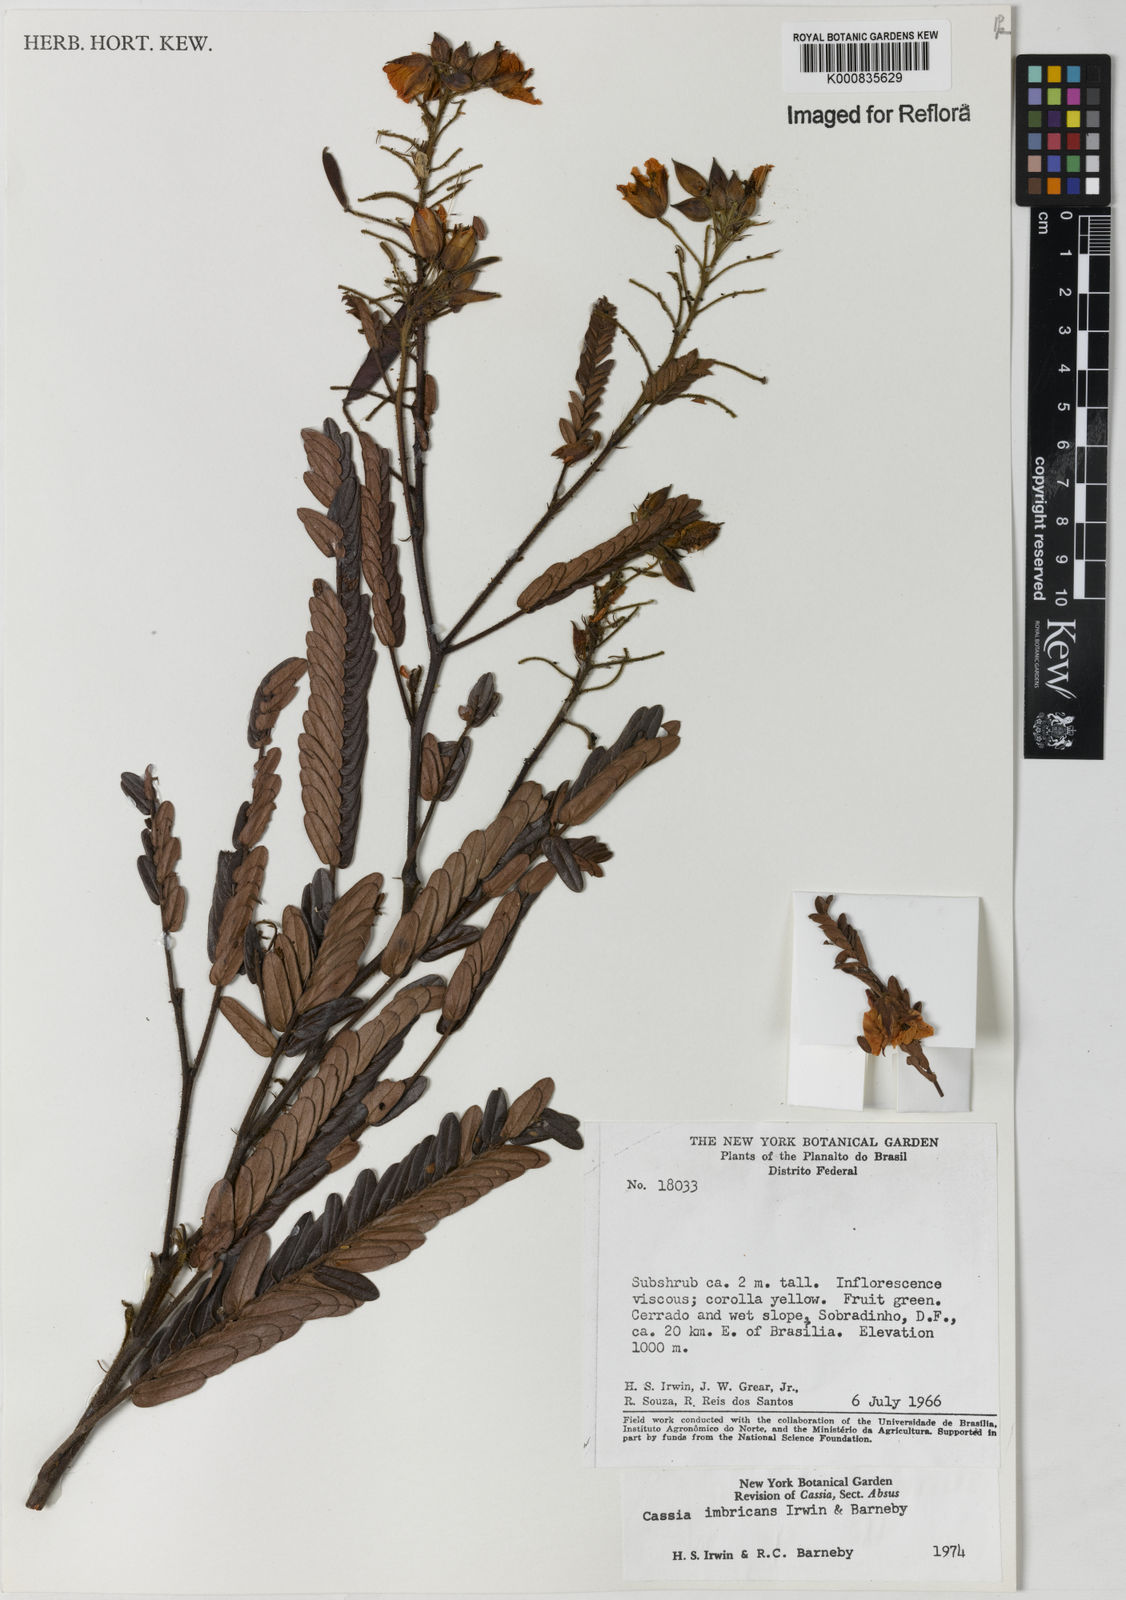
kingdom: Plantae
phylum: Tracheophyta
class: Magnoliopsida
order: Fabales
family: Fabaceae
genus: Chamaecrista
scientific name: Chamaecrista imbricans
